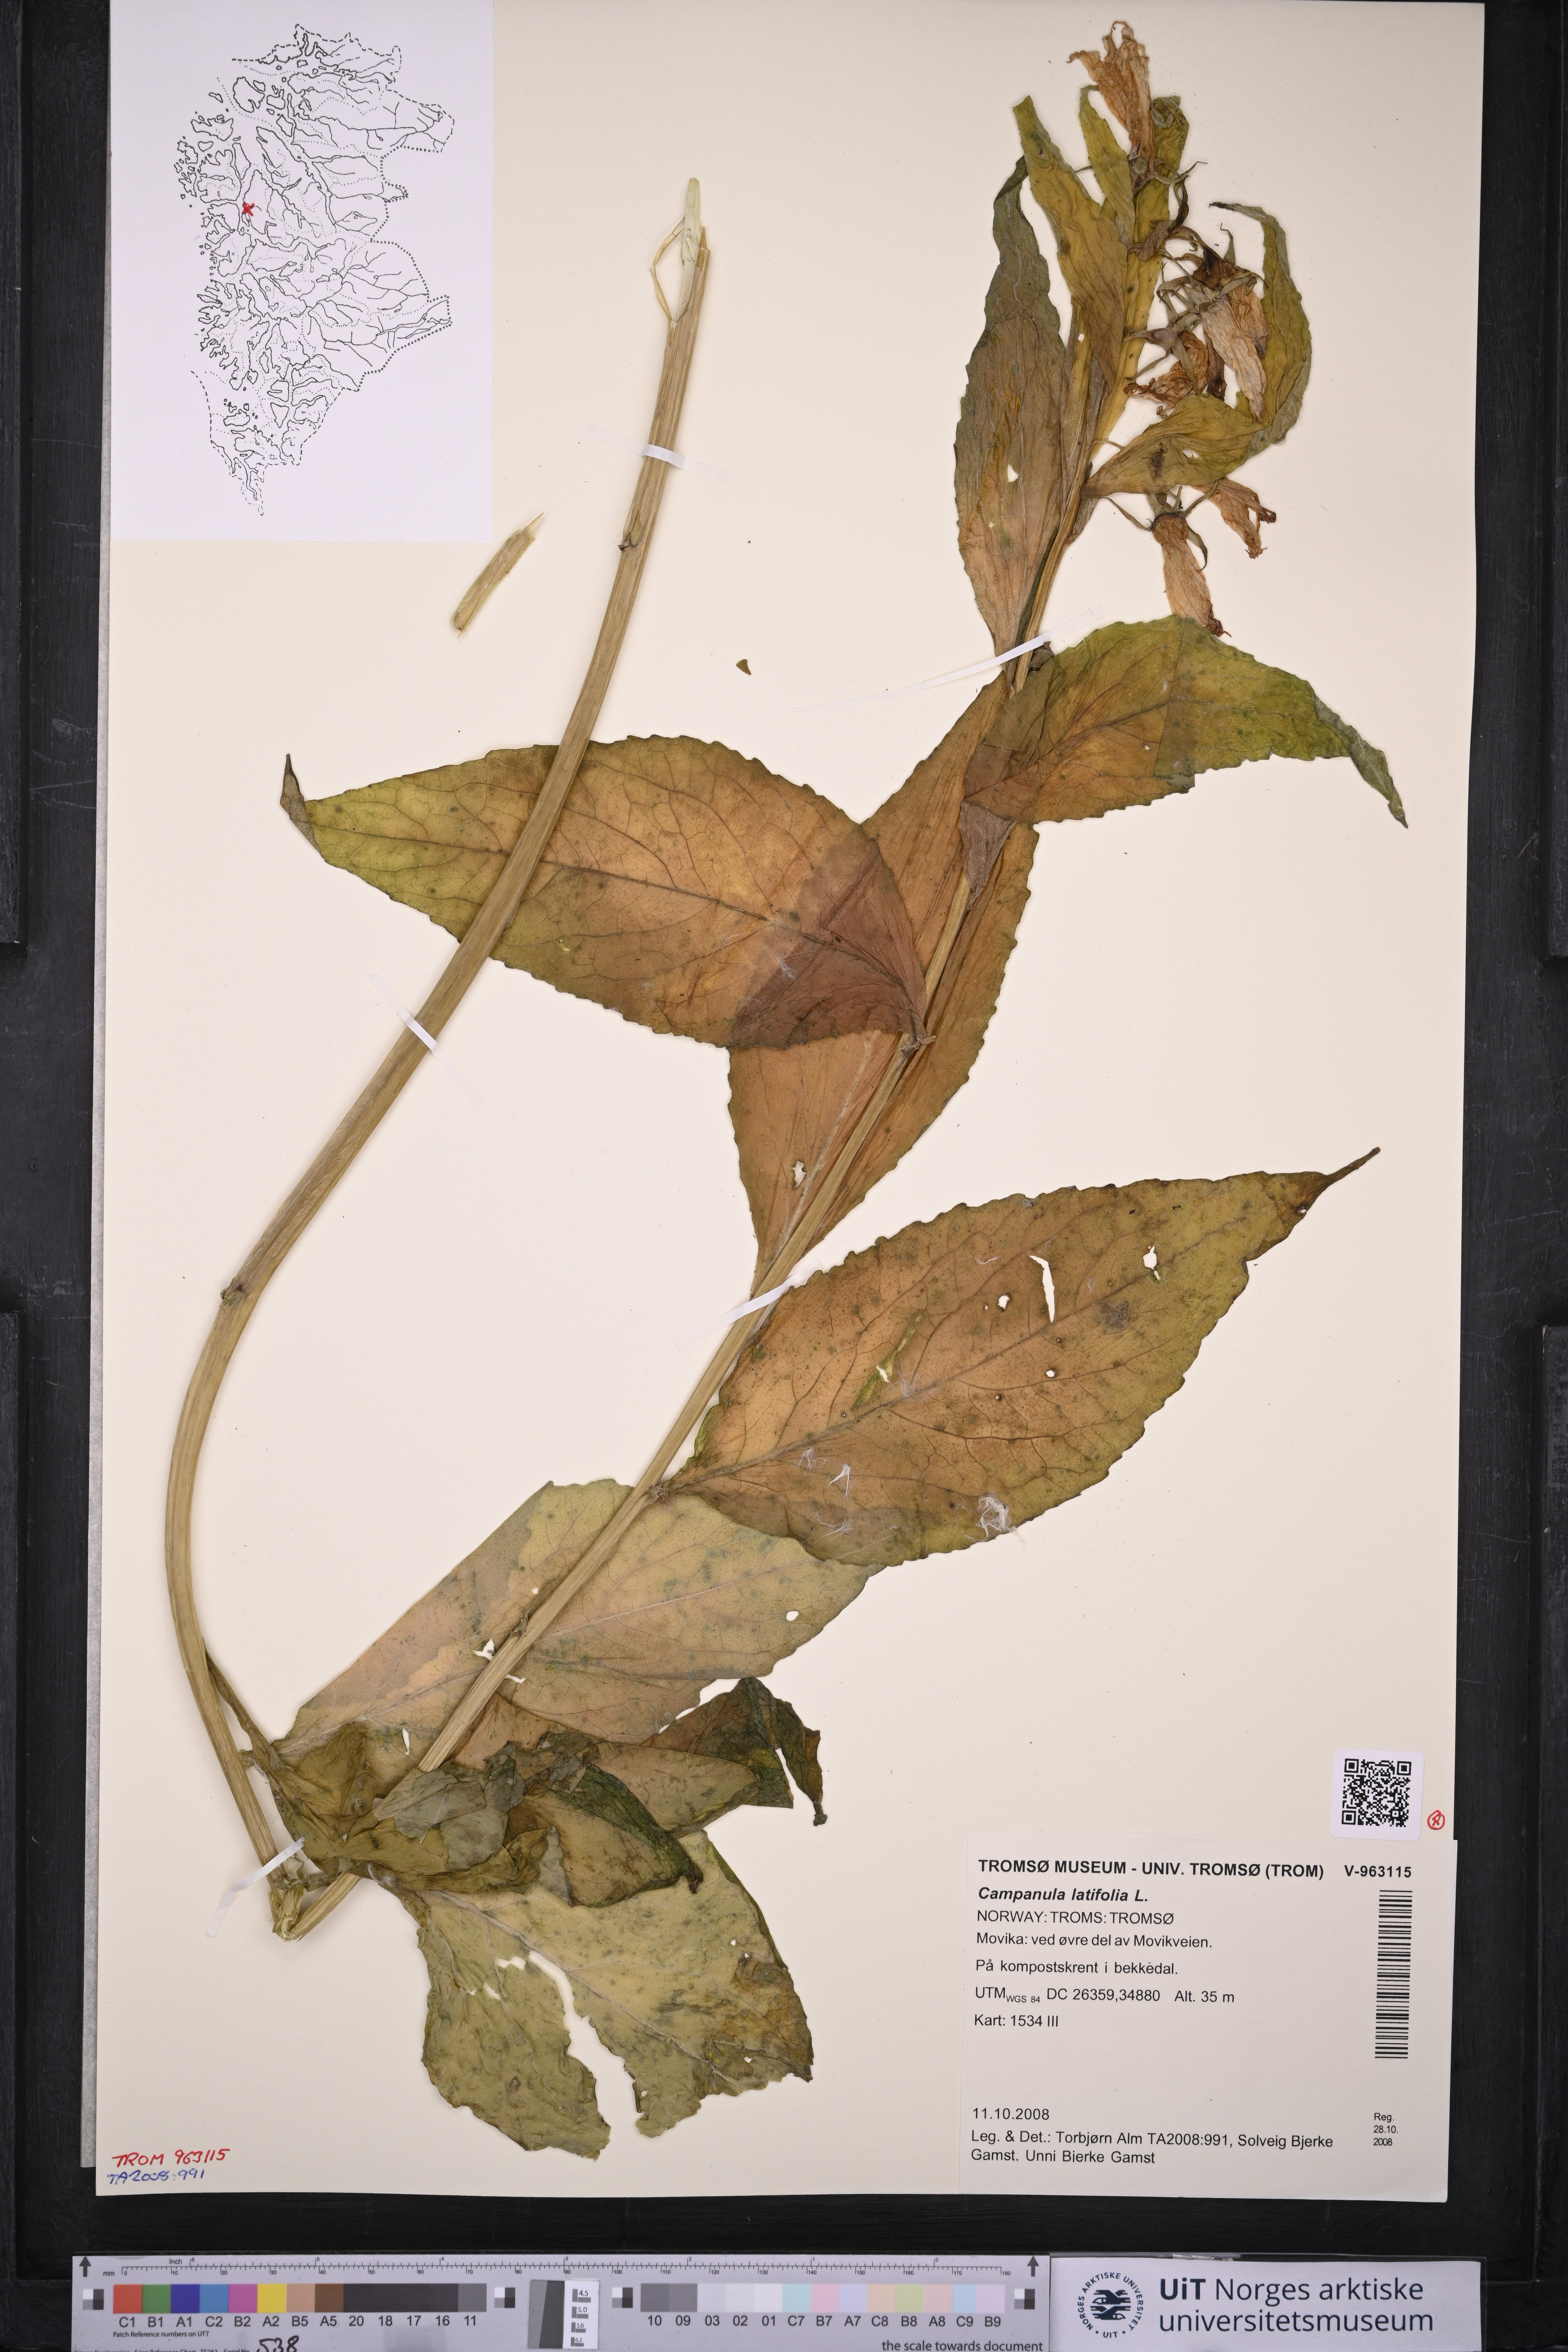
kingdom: Plantae
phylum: Tracheophyta
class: Magnoliopsida
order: Asterales
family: Campanulaceae
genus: Campanula
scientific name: Campanula latifolia
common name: Giant bellflower
